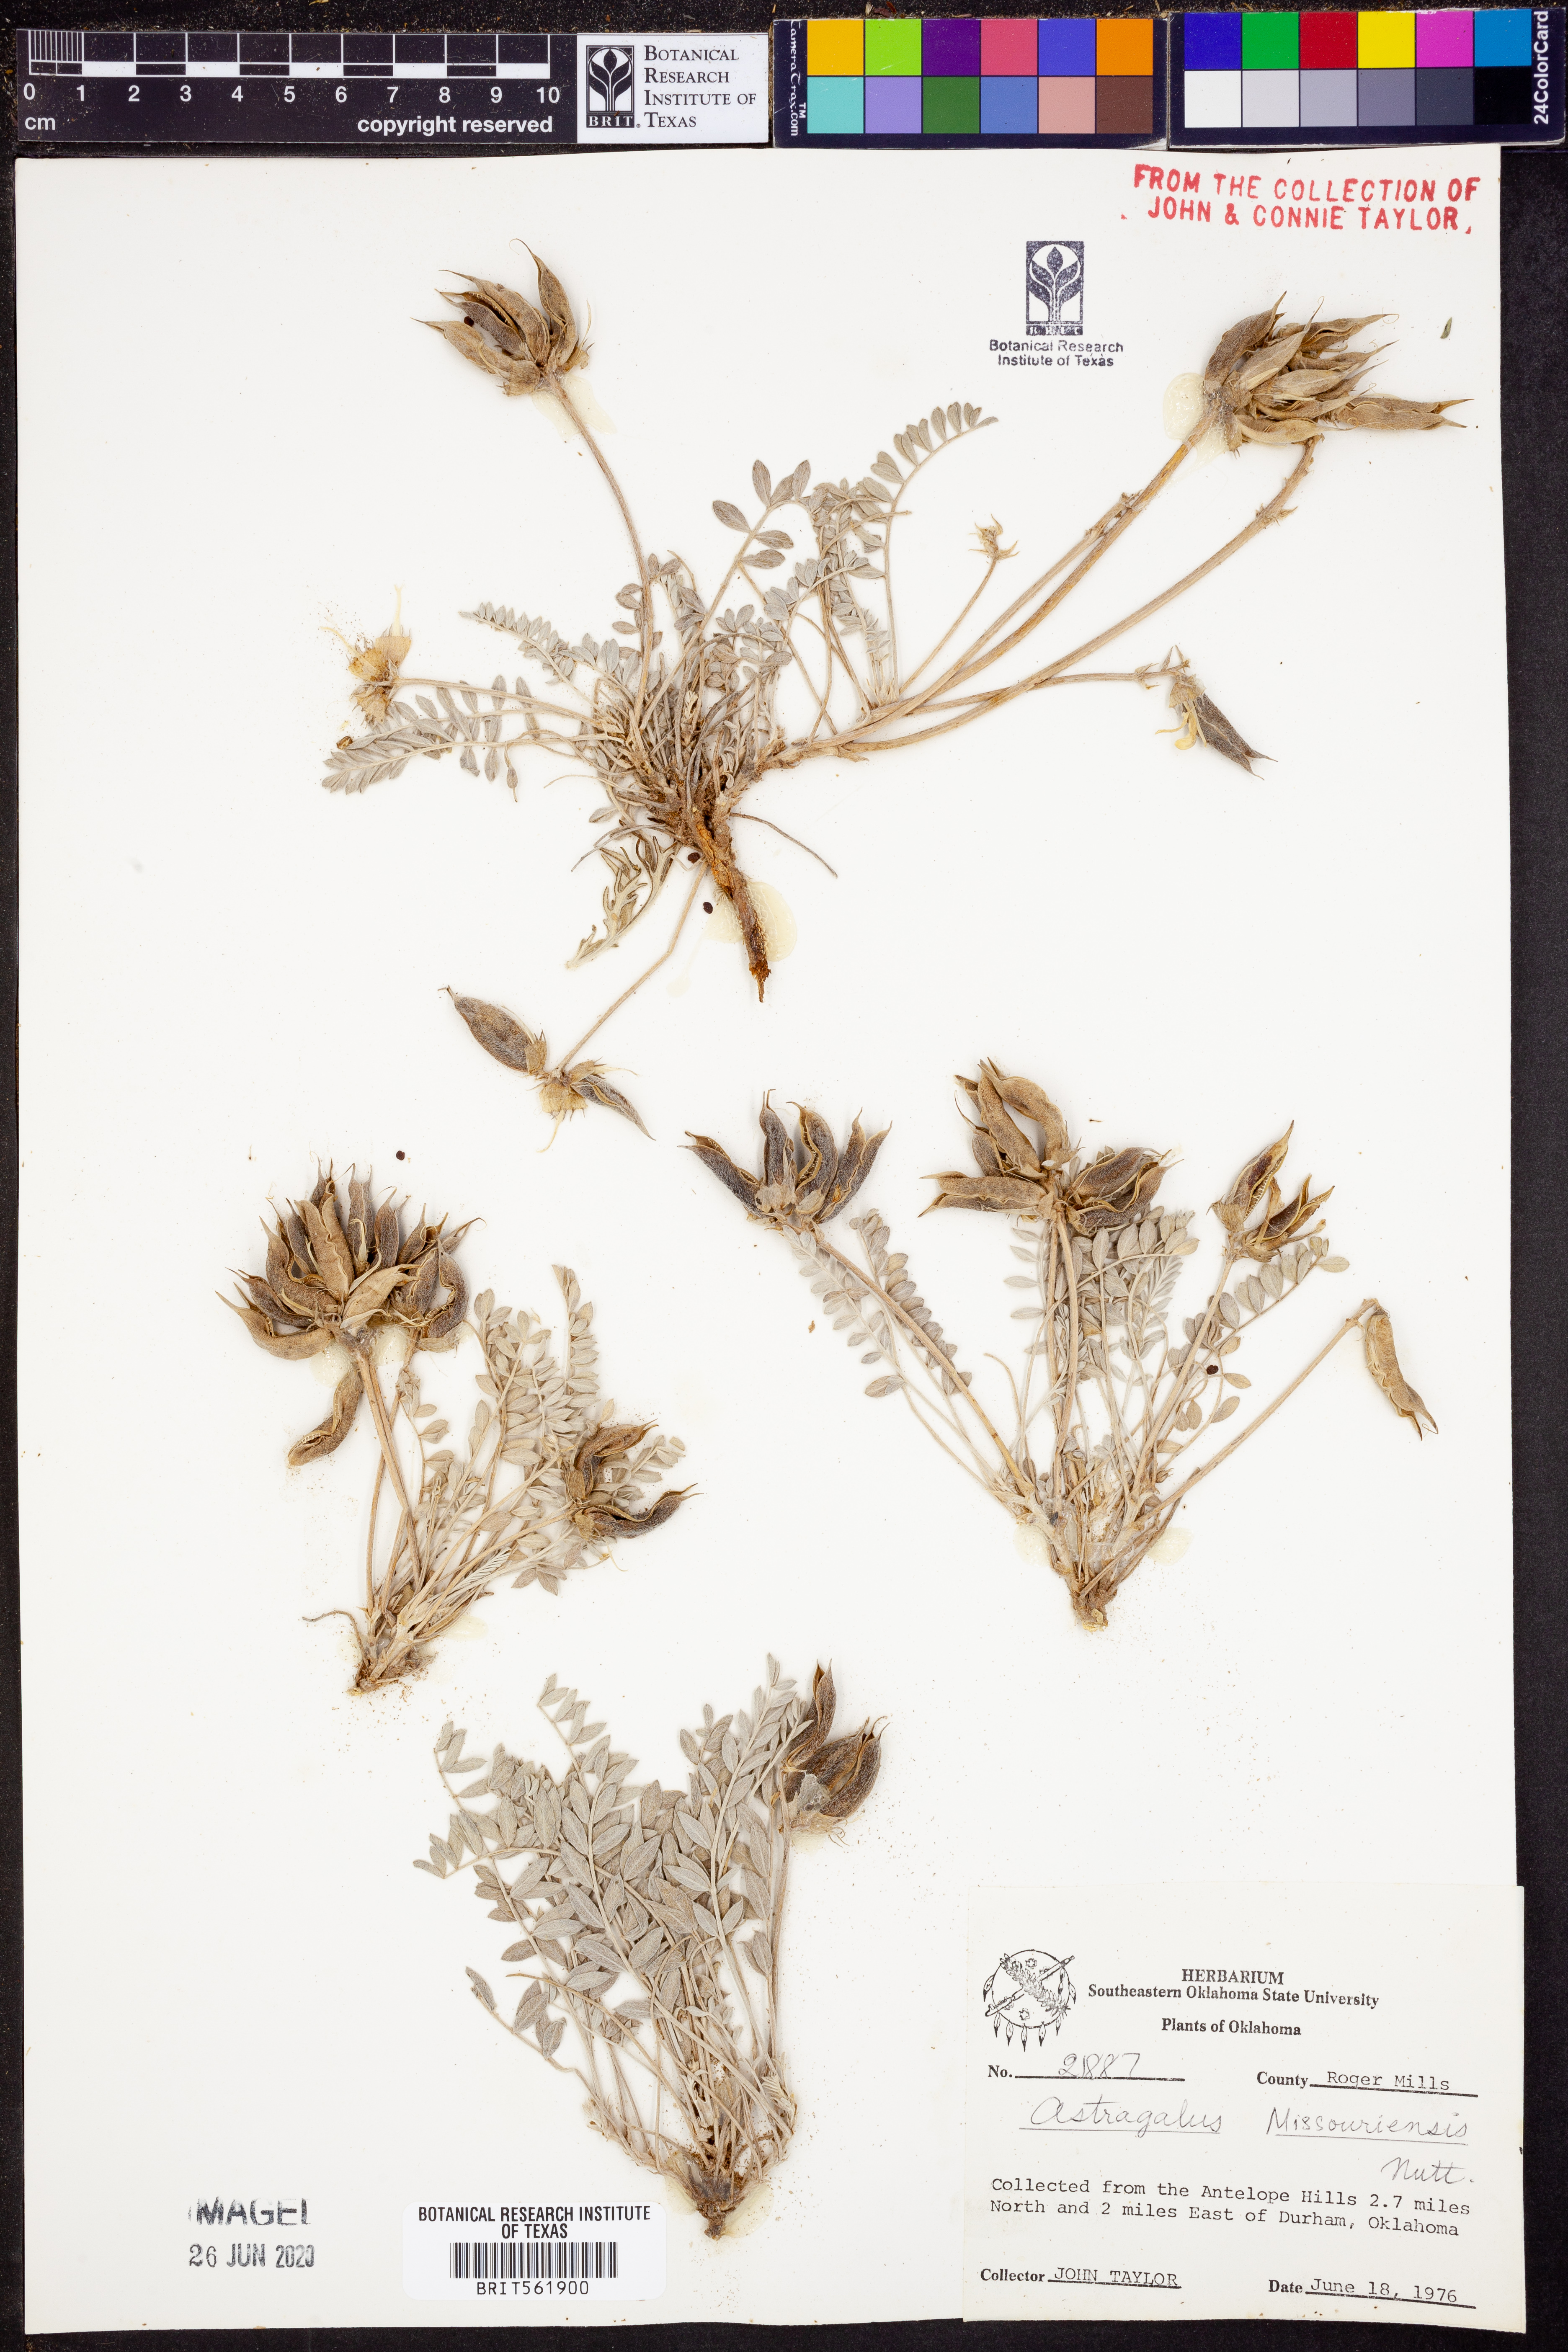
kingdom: Plantae
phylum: Tracheophyta
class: Magnoliopsida
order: Fabales
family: Fabaceae
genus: Astragalus
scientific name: Astragalus missouriensis
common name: Missouri milk-vetch
